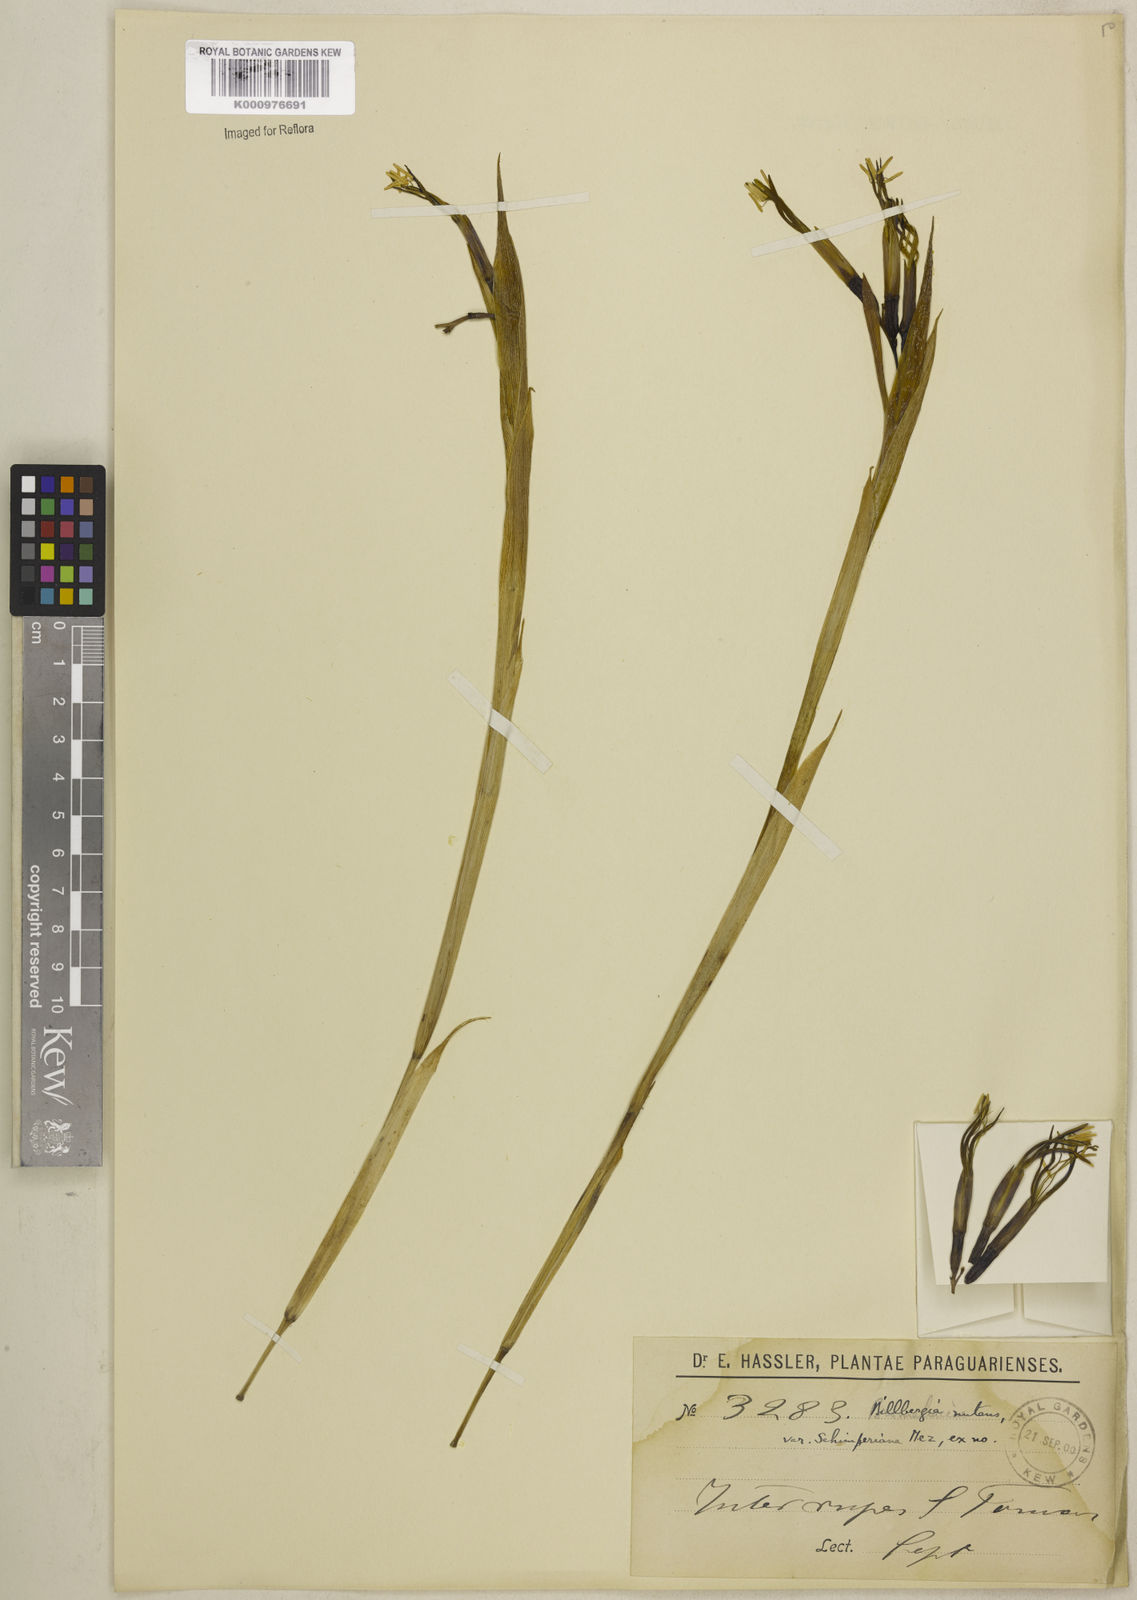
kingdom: Plantae
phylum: Tracheophyta
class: Liliopsida
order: Poales
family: Bromeliaceae
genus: Billbergia
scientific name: Billbergia nutans
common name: Friendship-plant
